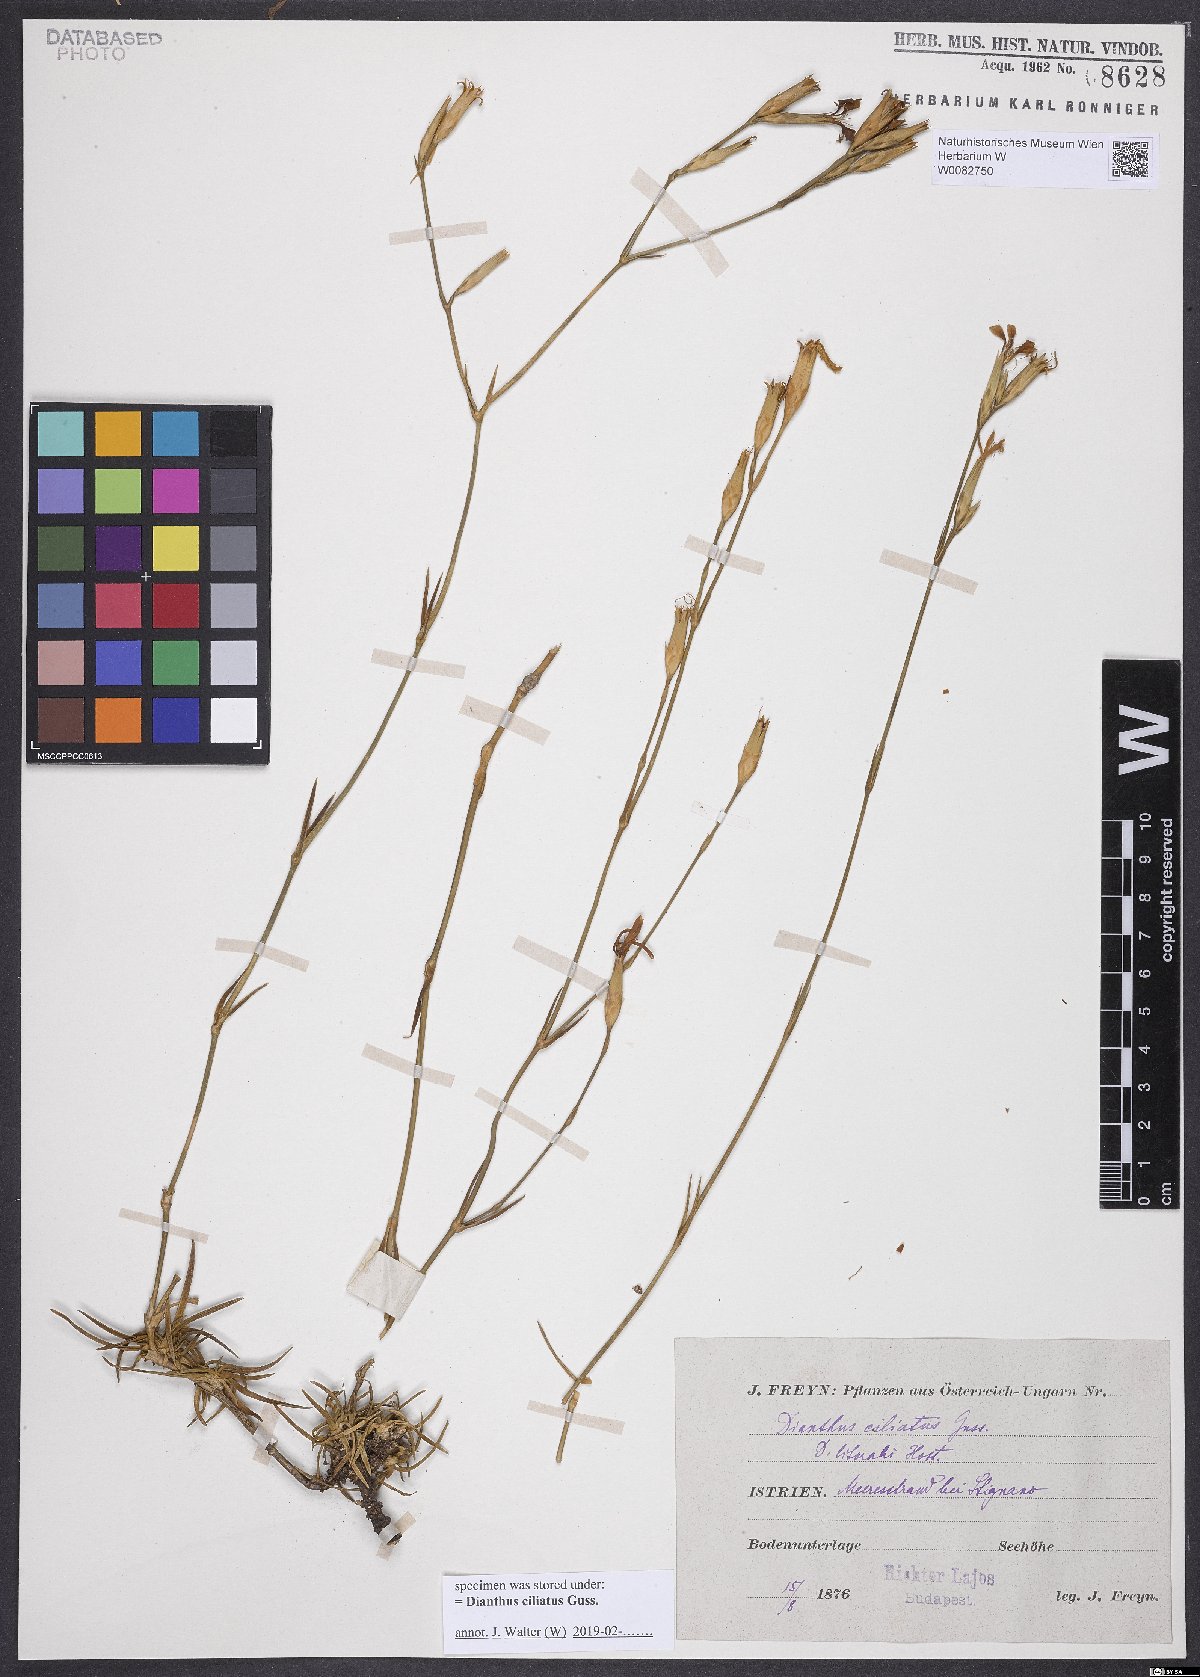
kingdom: Plantae
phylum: Tracheophyta
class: Magnoliopsida
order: Caryophyllales
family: Caryophyllaceae
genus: Dianthus
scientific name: Dianthus ciliatus
